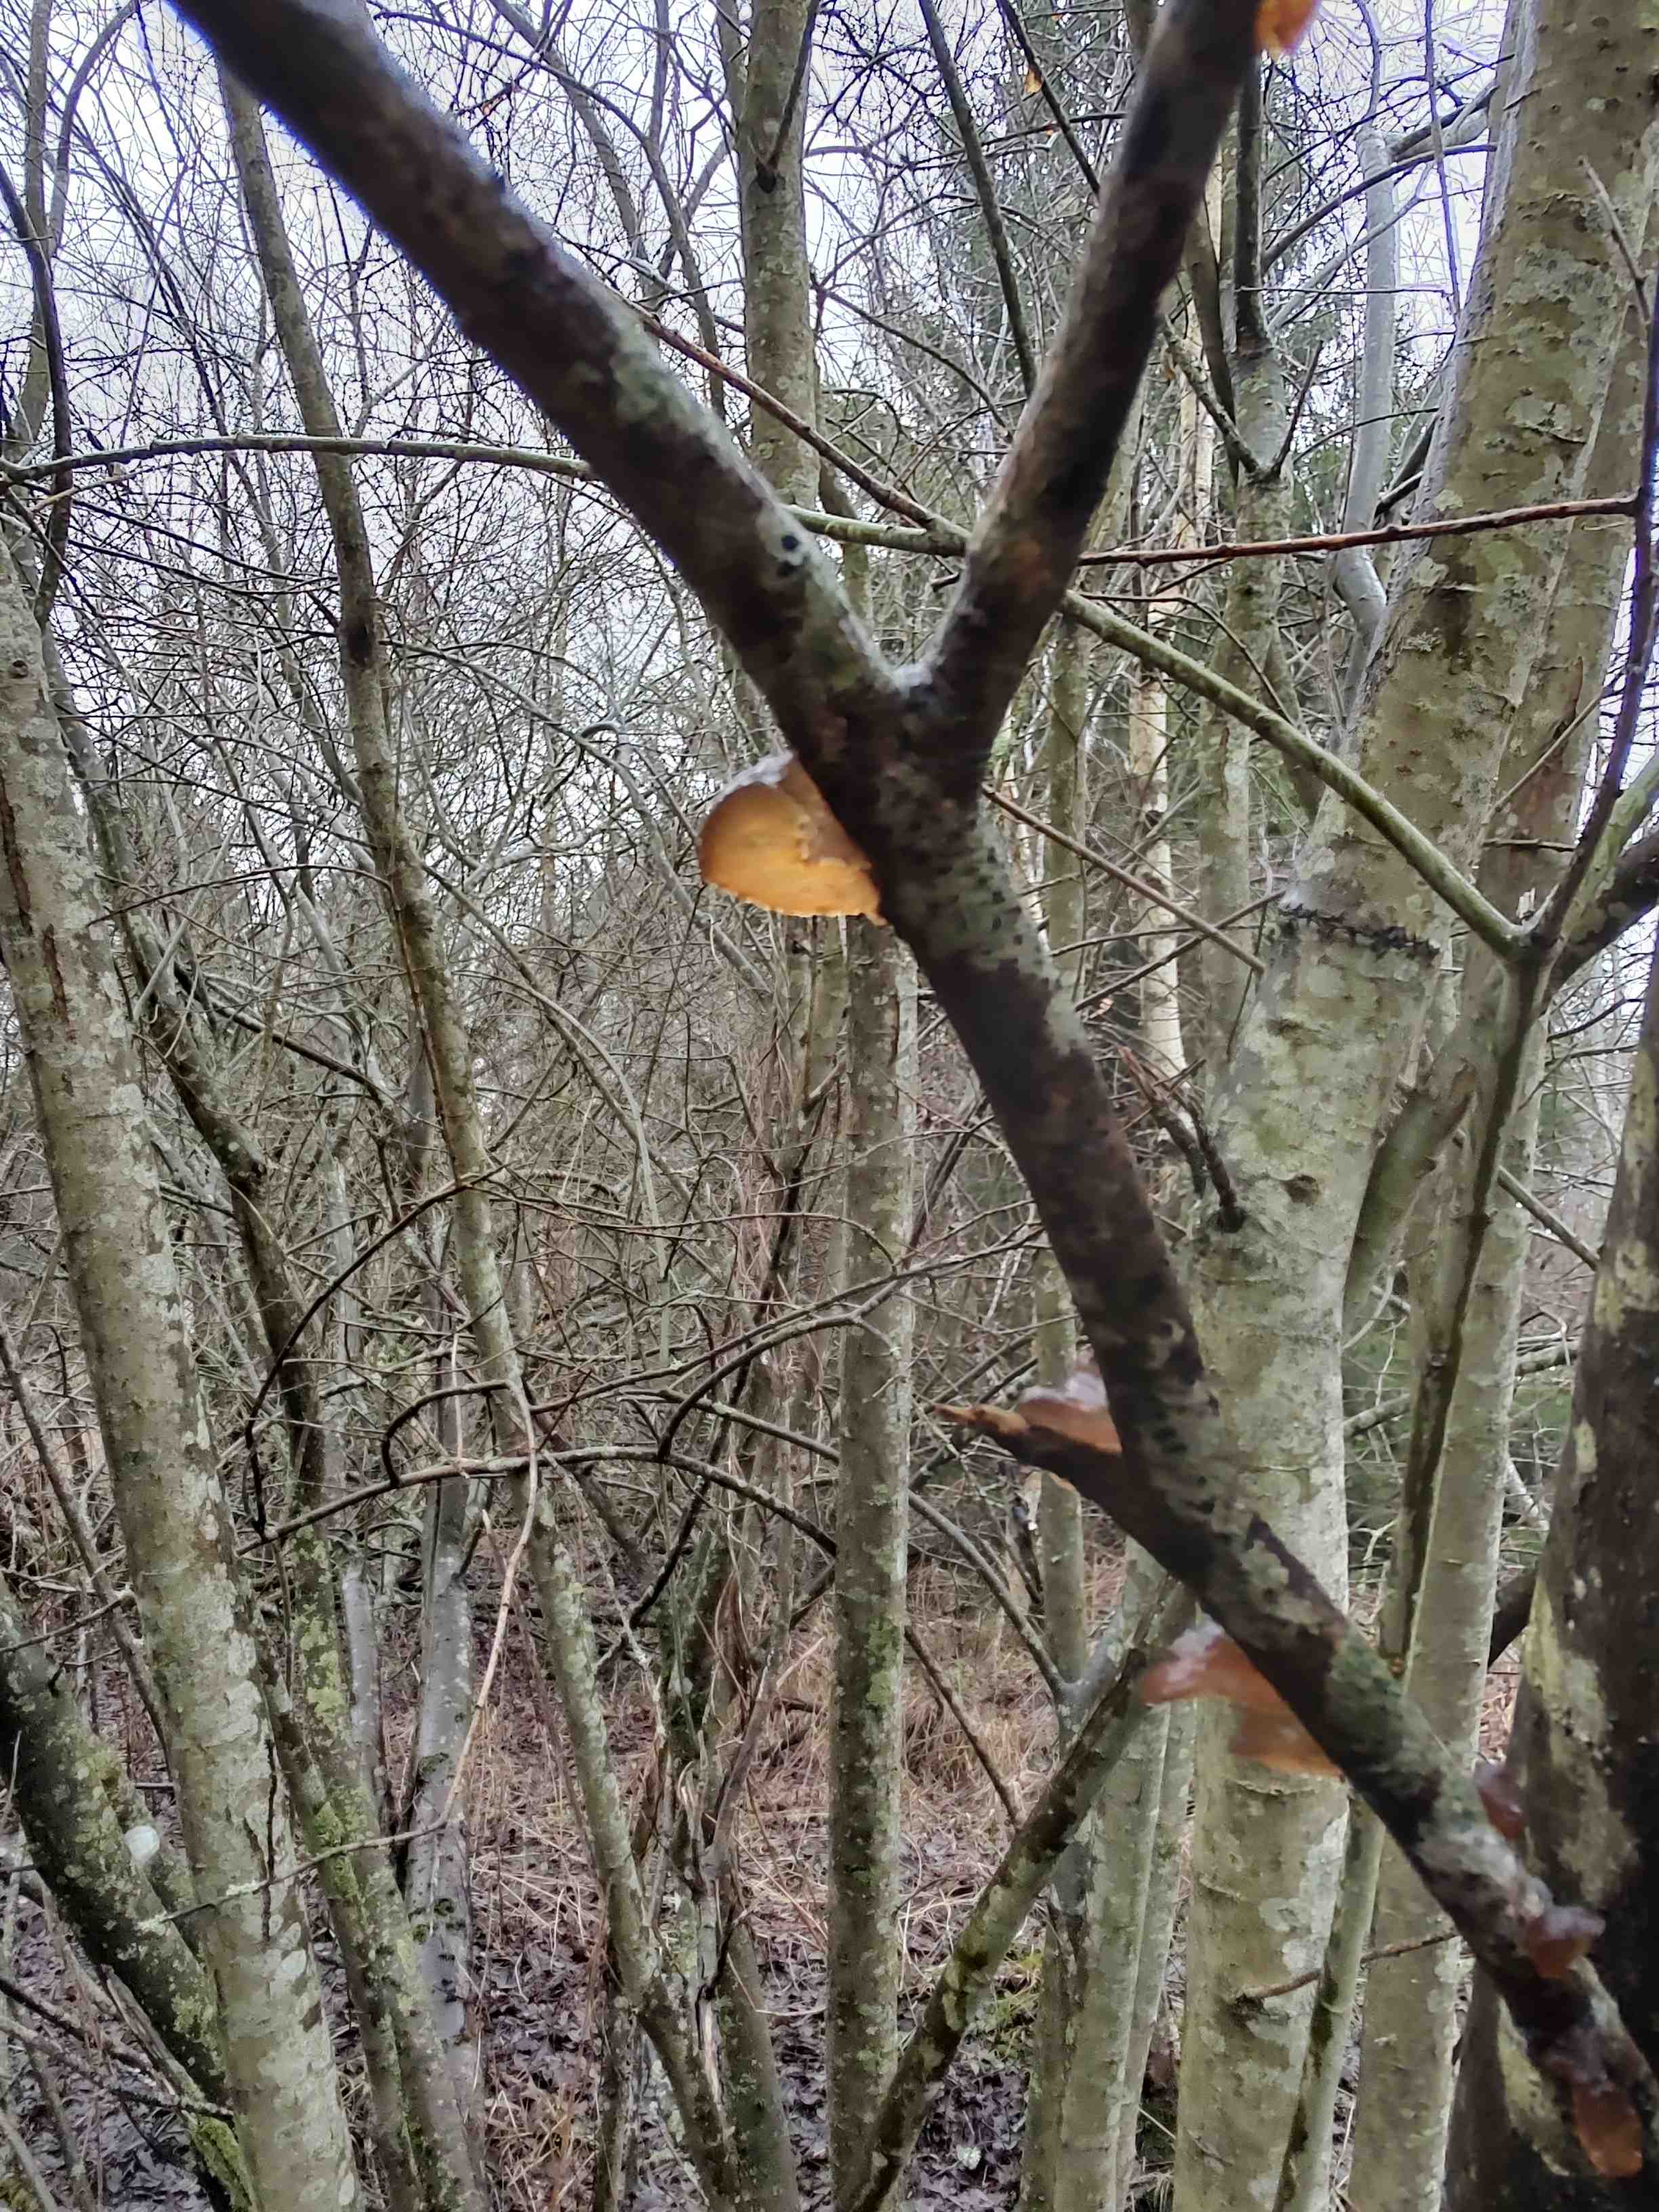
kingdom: Fungi
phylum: Basidiomycota
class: Agaricomycetes
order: Auriculariales
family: Auriculariaceae
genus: Exidia
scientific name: Exidia recisa
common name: pile-bævretop
